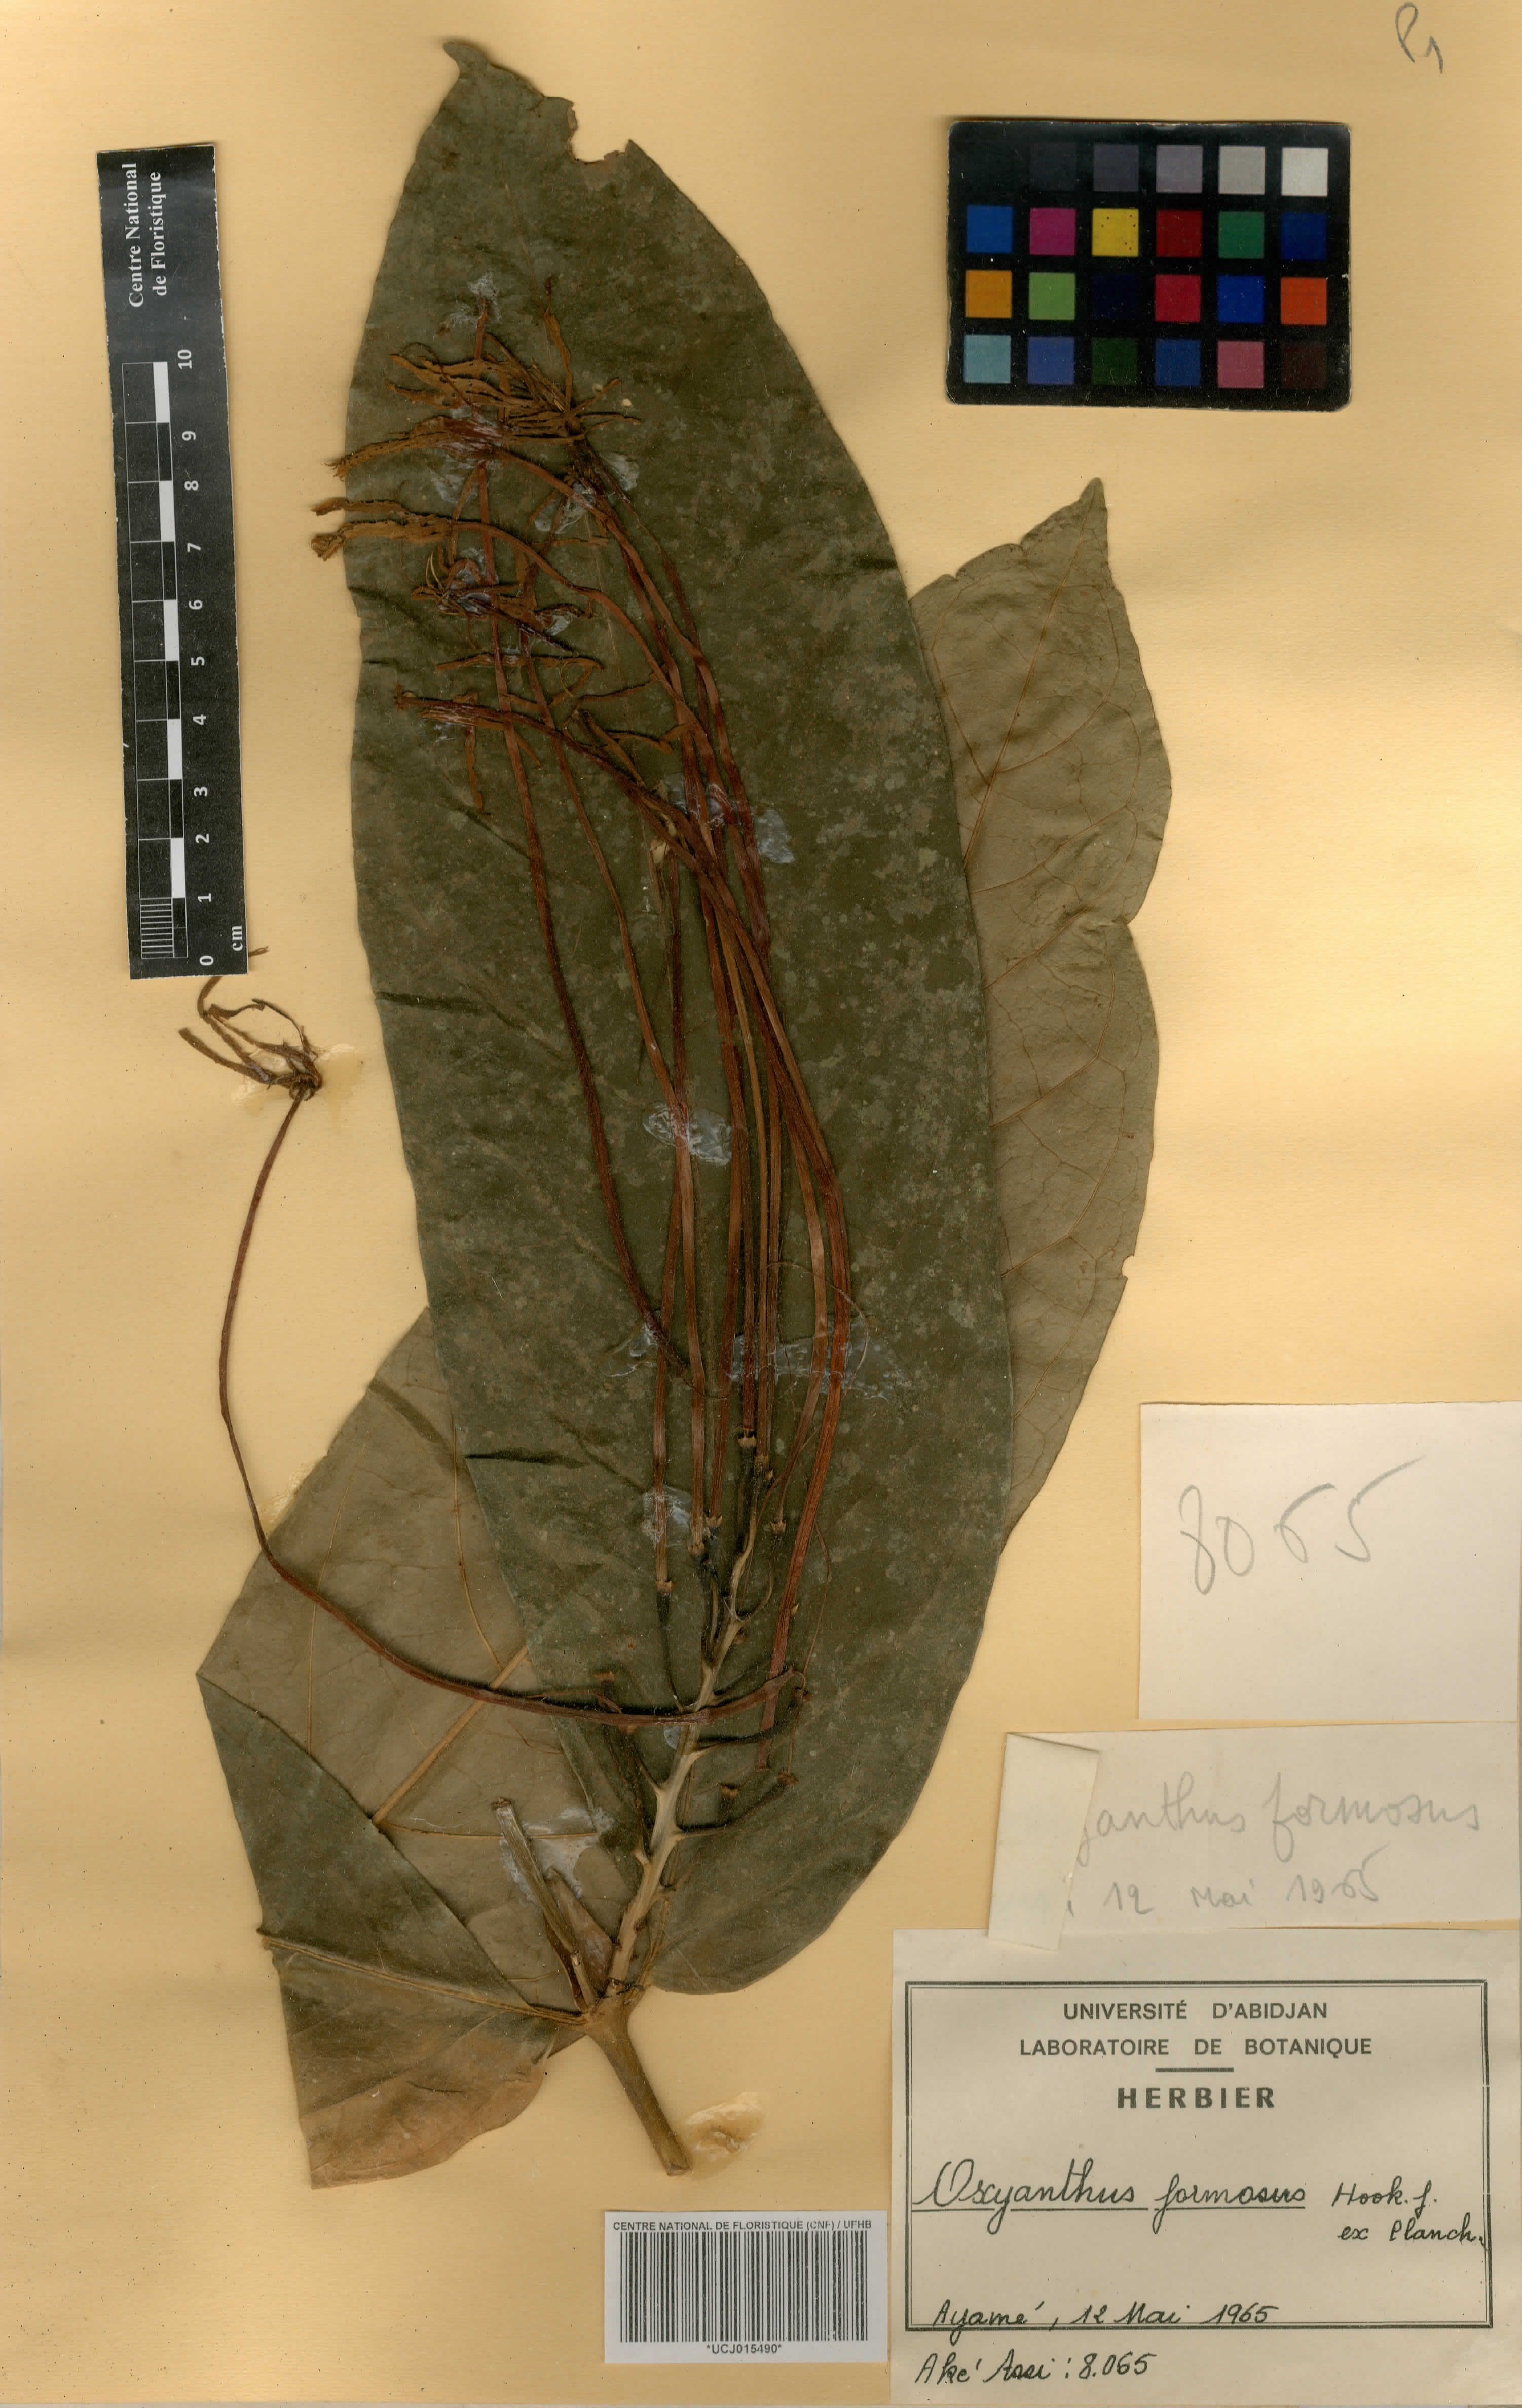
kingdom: Plantae
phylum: Tracheophyta
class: Magnoliopsida
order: Gentianales
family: Rubiaceae
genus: Oxyanthus
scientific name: Oxyanthus formosus
